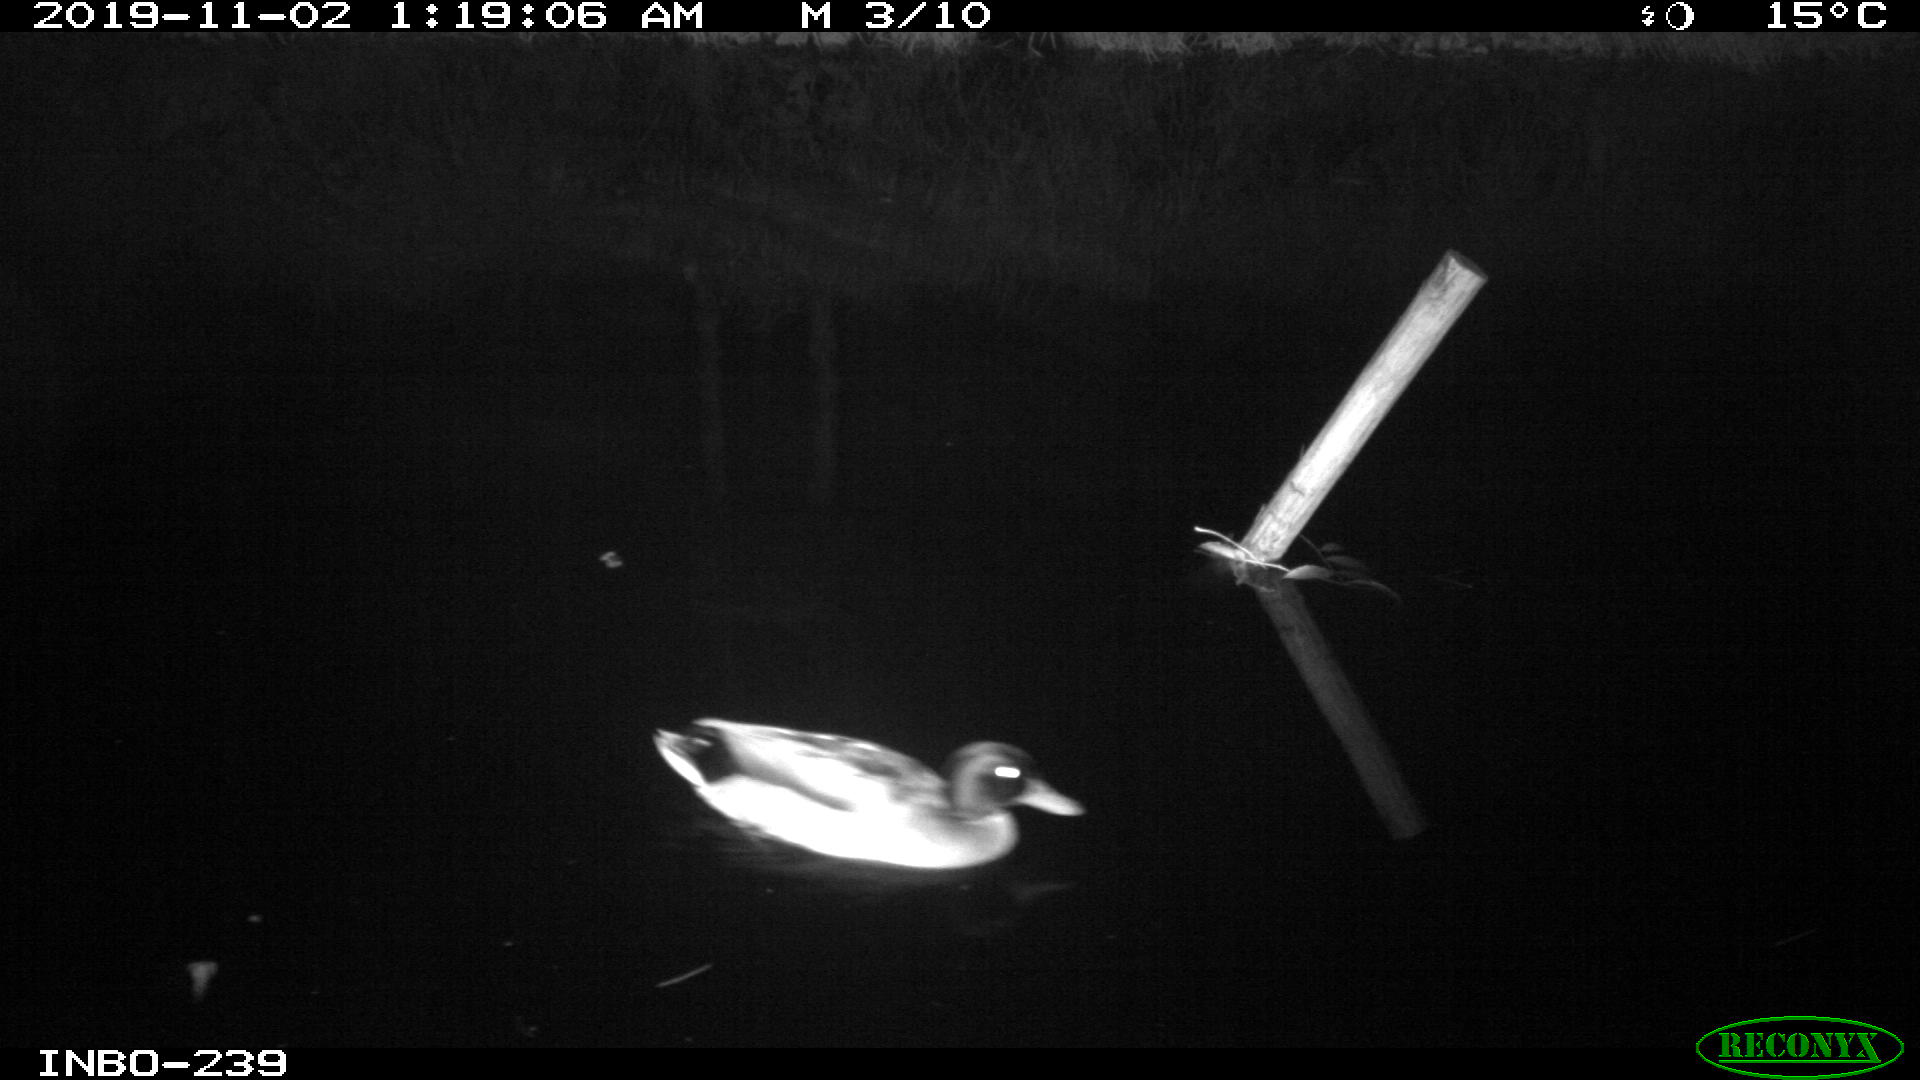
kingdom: Animalia
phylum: Chordata
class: Aves
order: Anseriformes
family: Anatidae
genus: Anas
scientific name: Anas platyrhynchos
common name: Mallard
